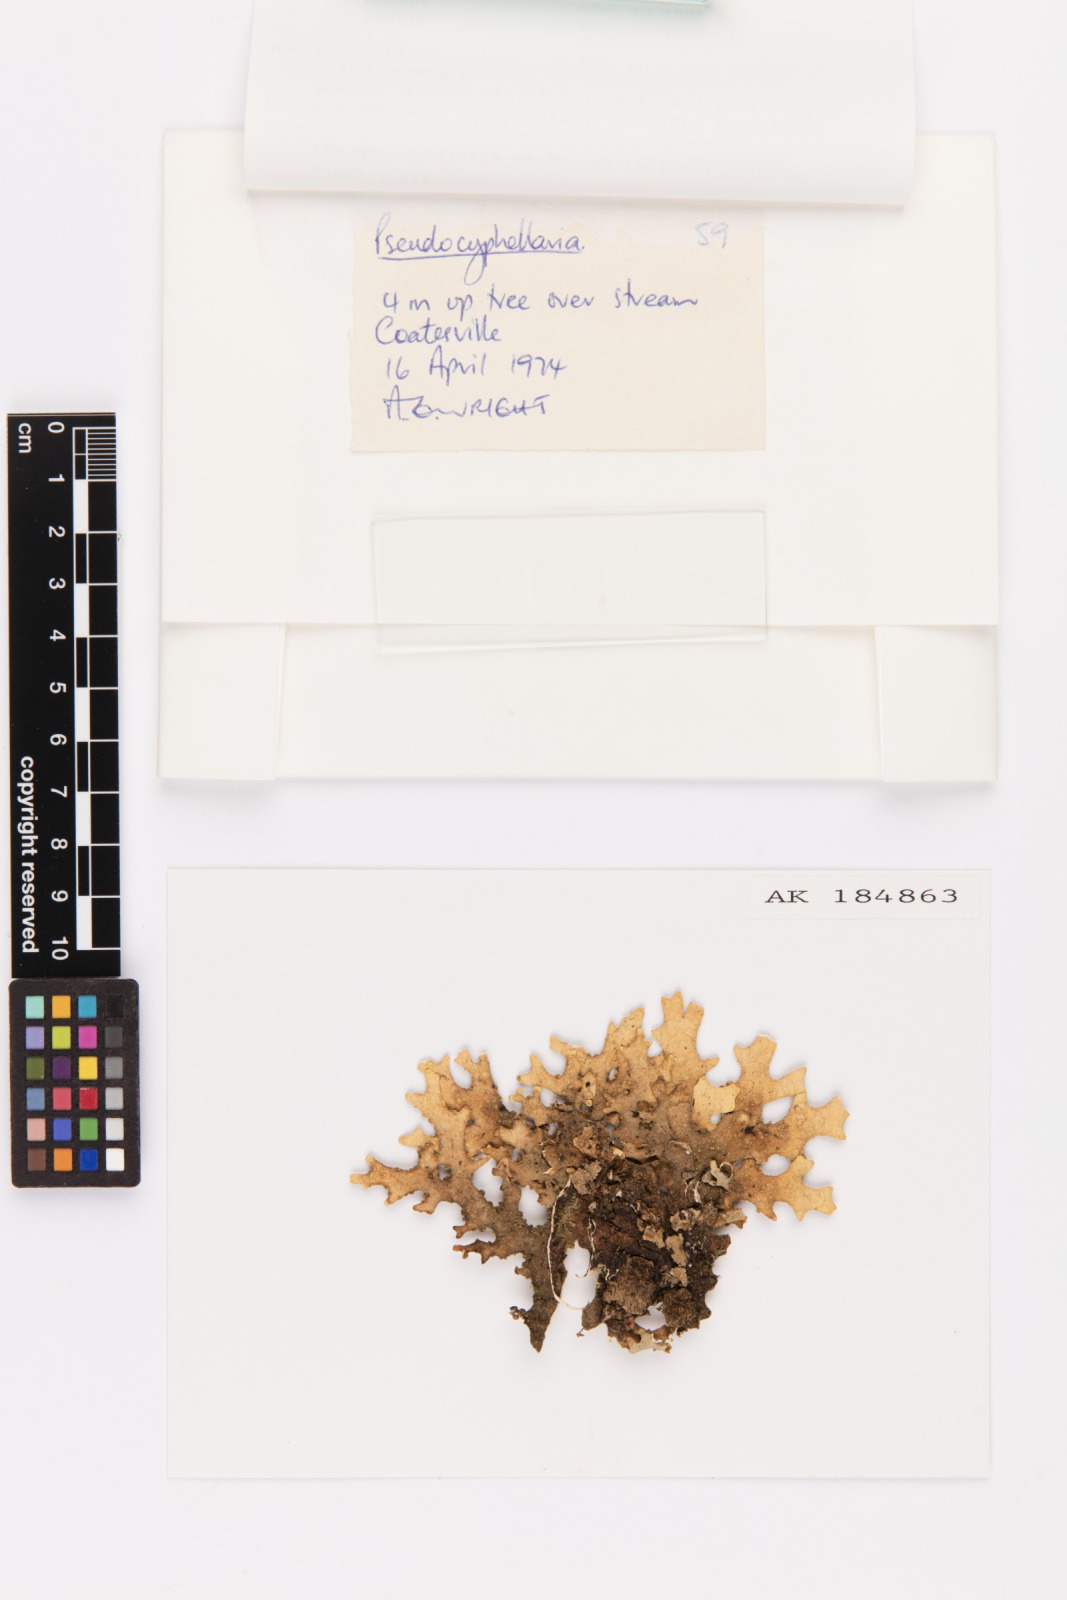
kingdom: Fungi
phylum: Ascomycota
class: Lecanoromycetes
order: Peltigerales
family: Lobariaceae
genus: Pseudocyphellaria
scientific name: Pseudocyphellaria carpoloma
